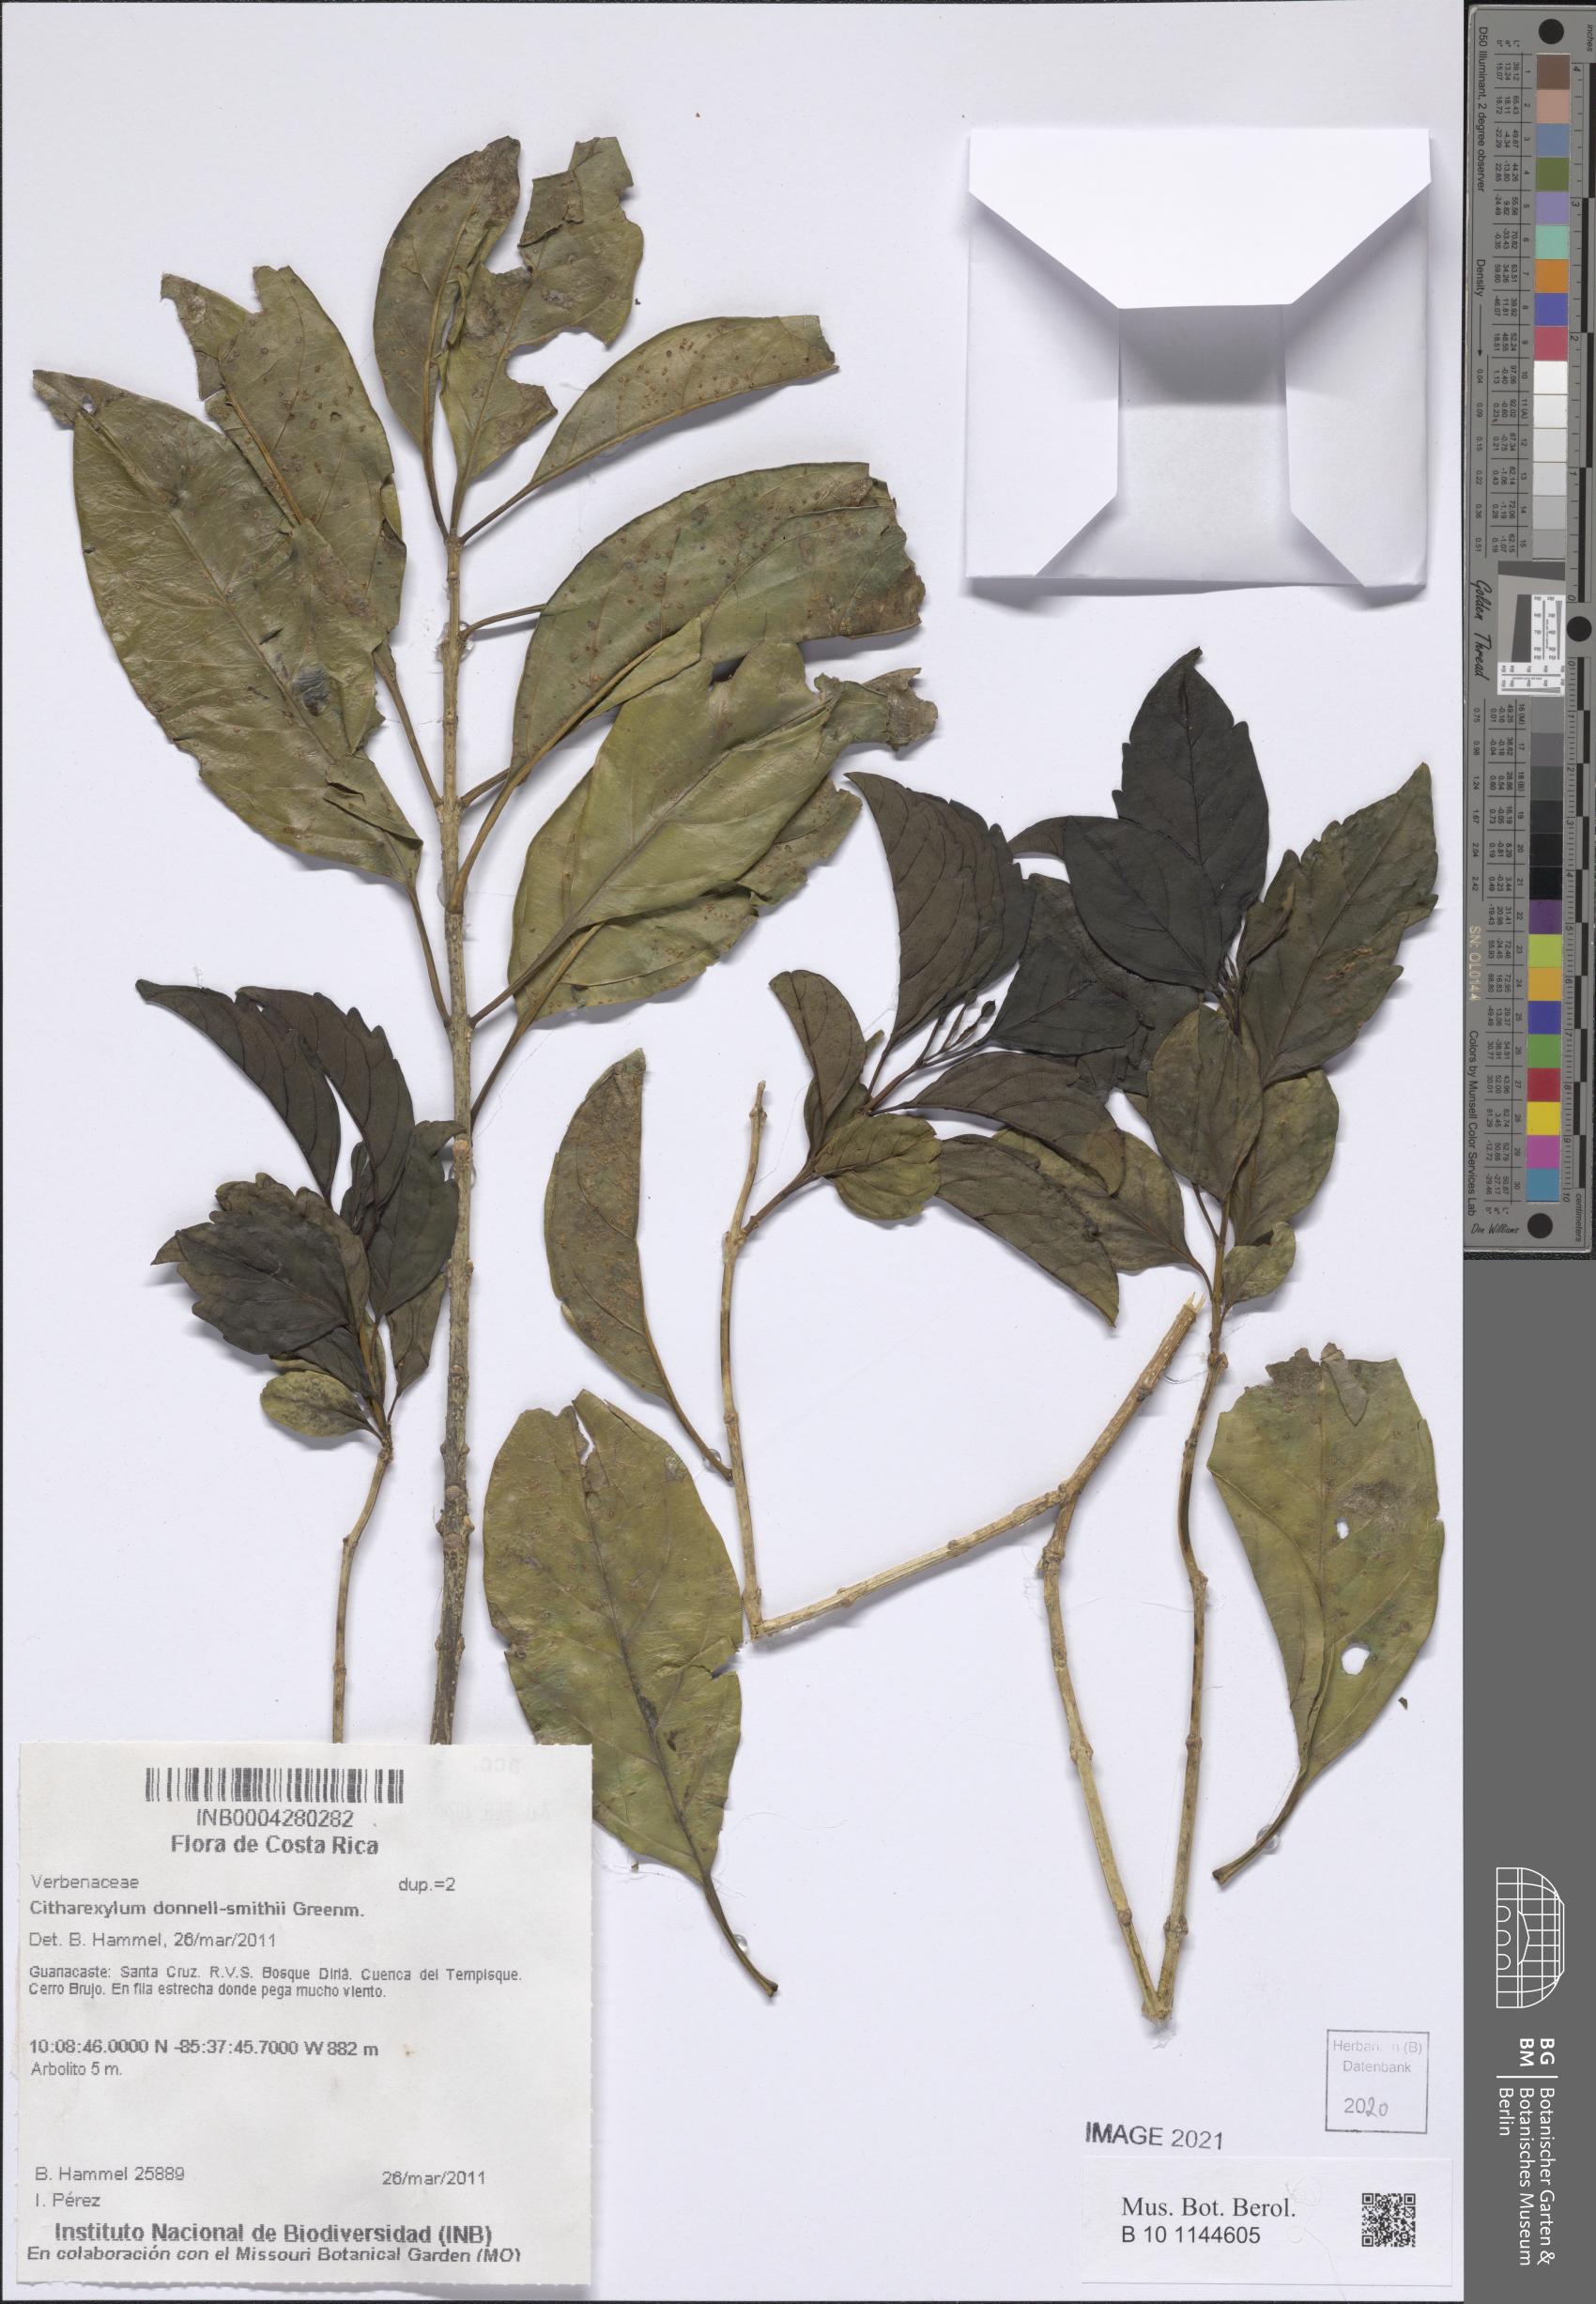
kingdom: Plantae
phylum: Tracheophyta
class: Magnoliopsida
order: Lamiales
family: Verbenaceae
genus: Citharexylum
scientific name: Citharexylum donnell-smithii
